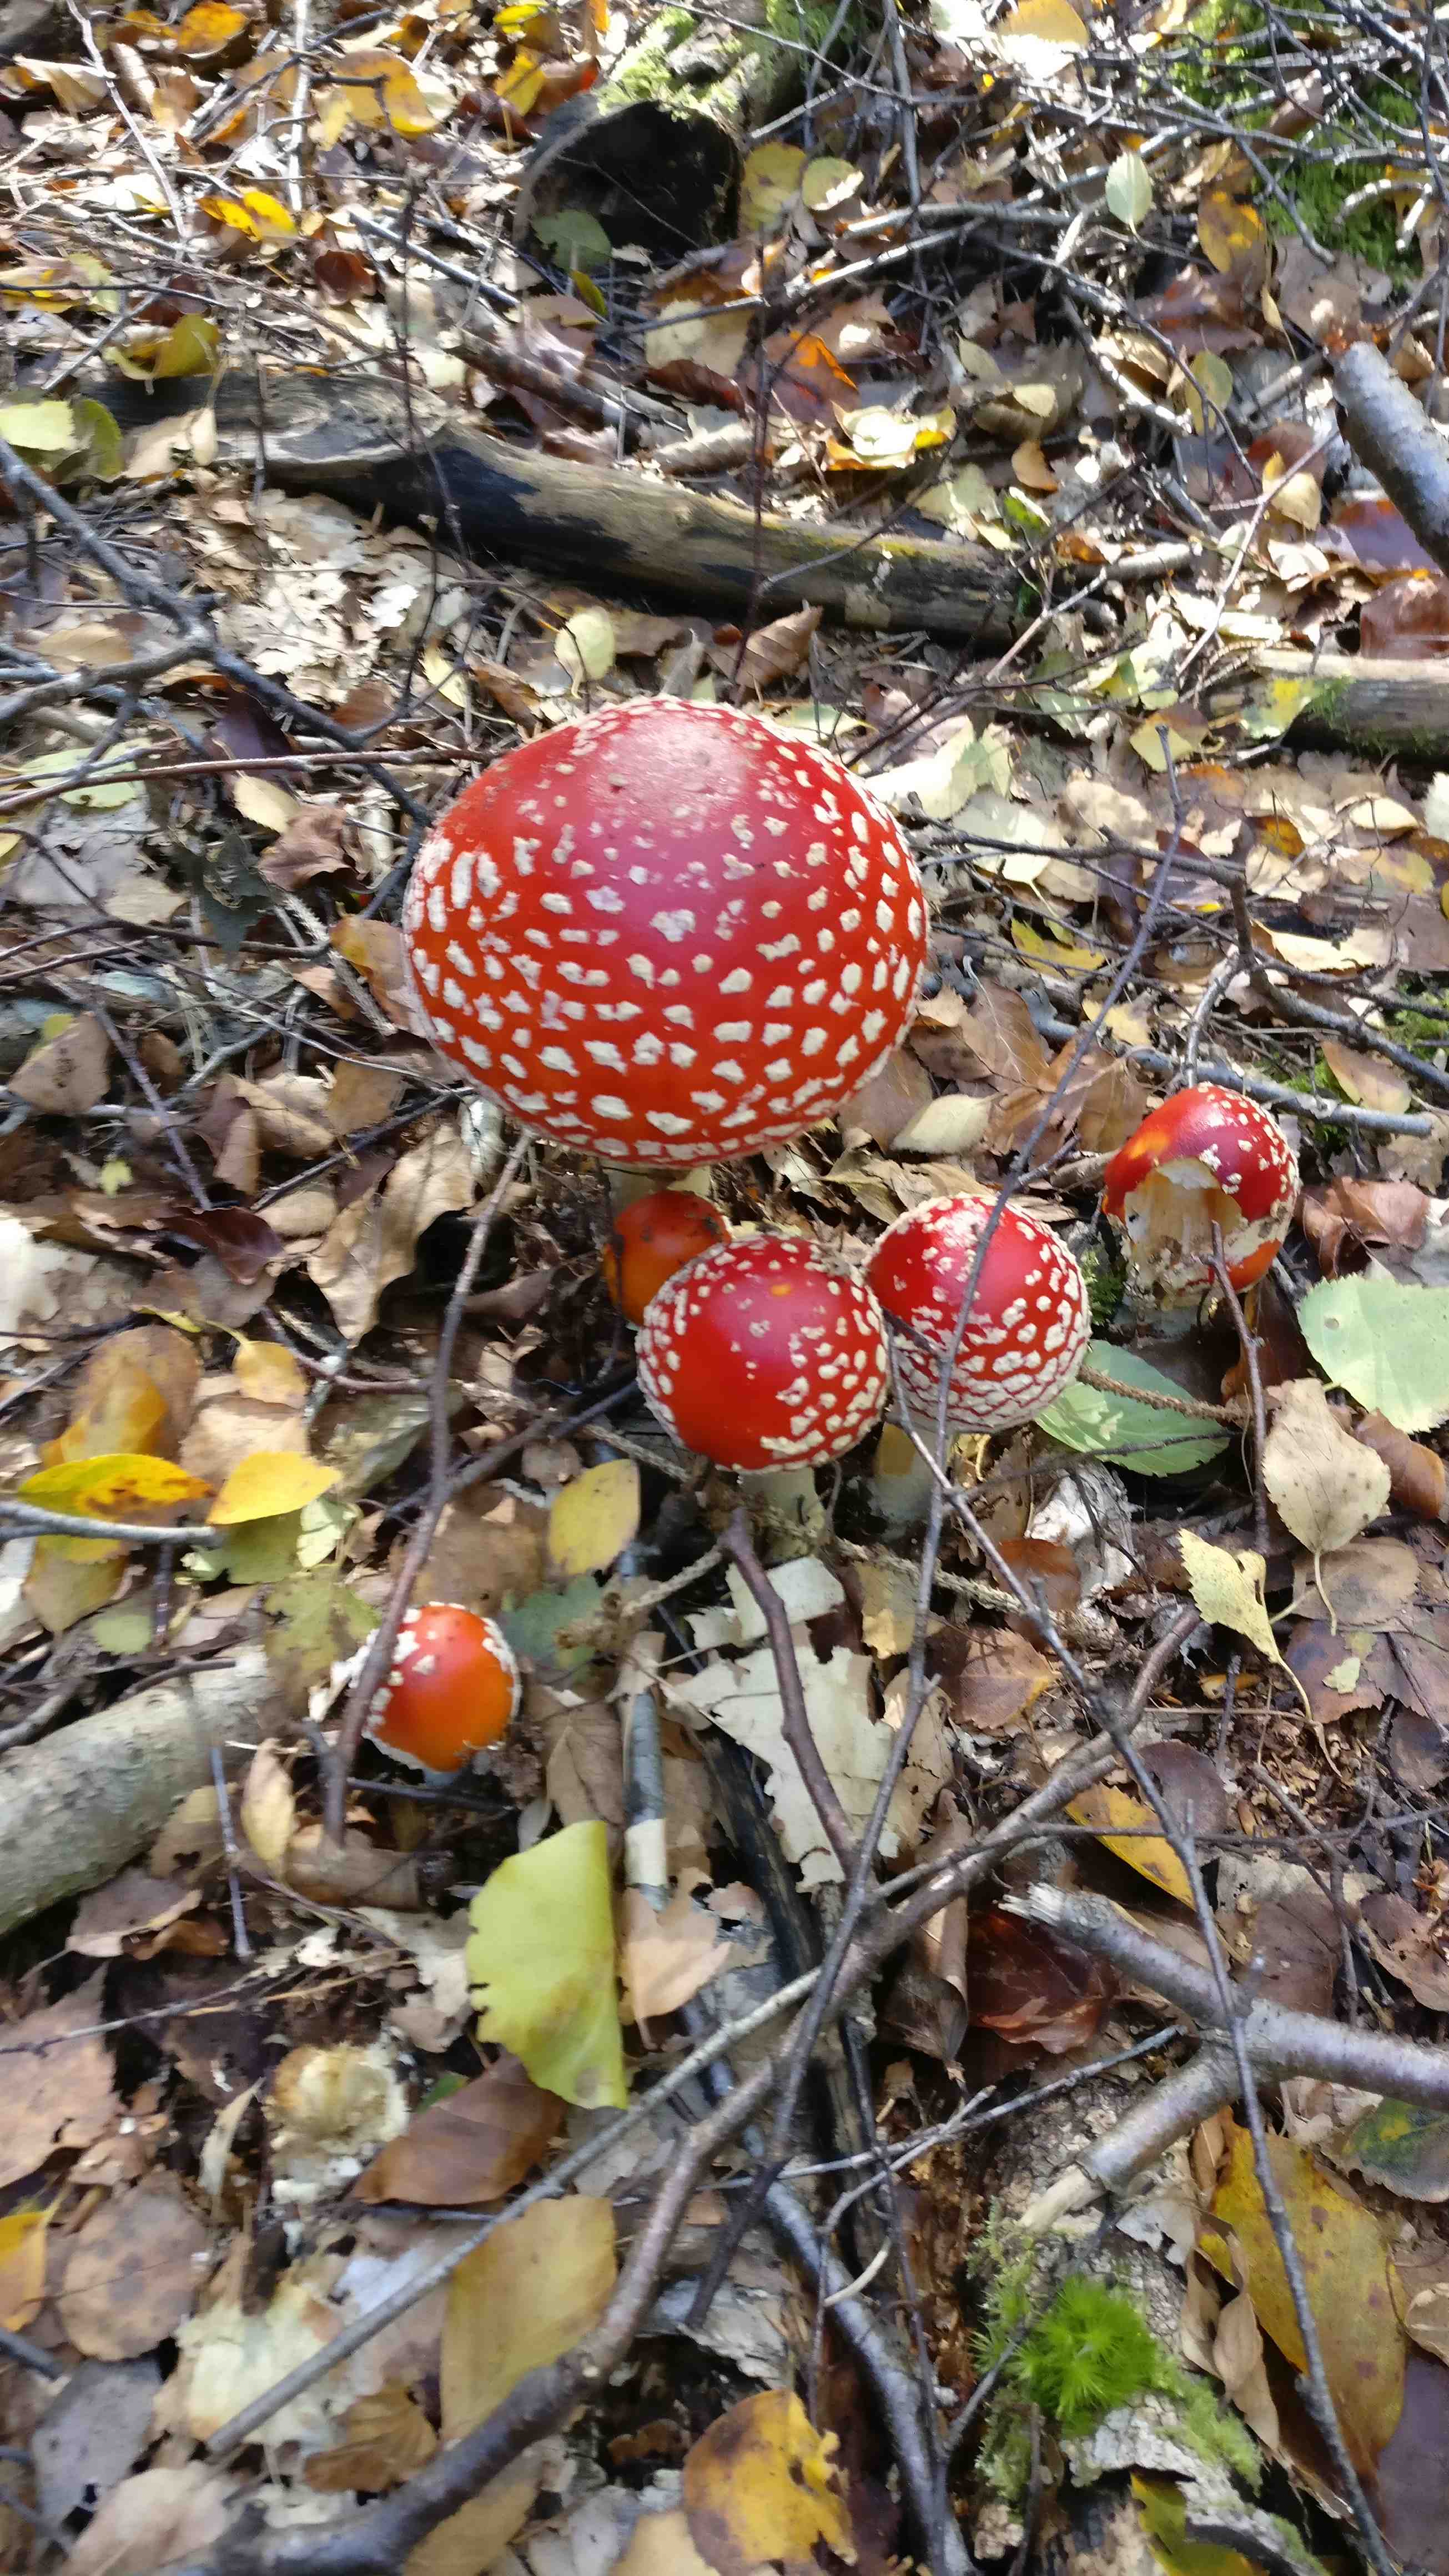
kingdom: Fungi
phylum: Basidiomycota
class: Agaricomycetes
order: Agaricales
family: Amanitaceae
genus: Amanita
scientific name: Amanita muscaria
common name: rød fluesvamp
